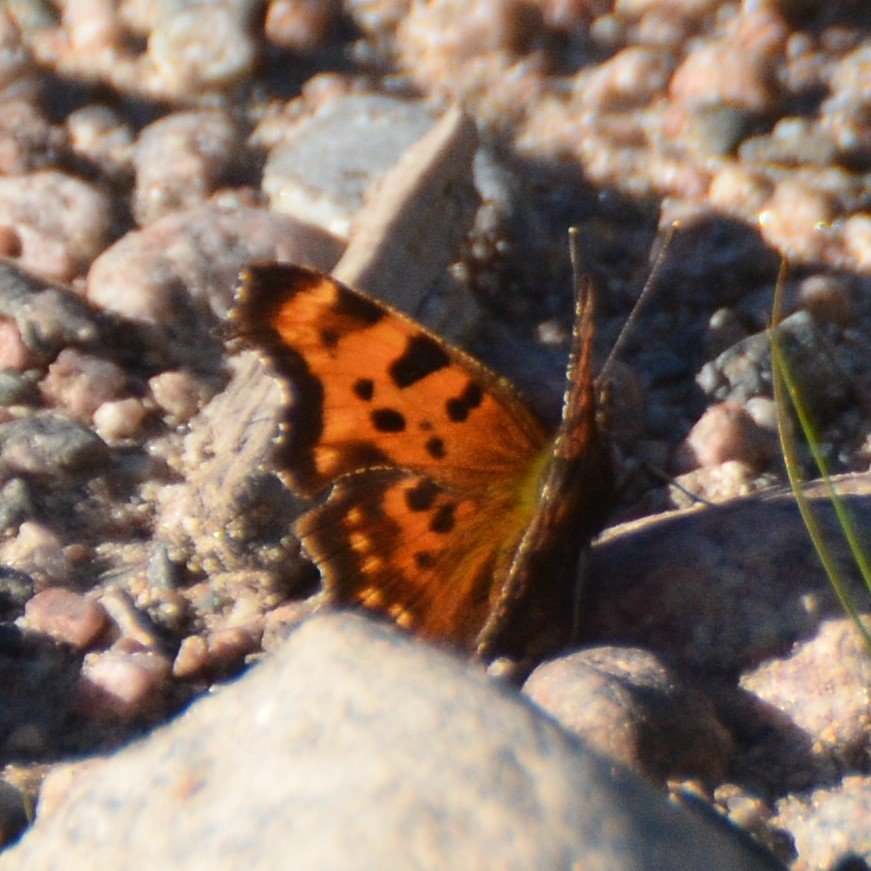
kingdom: Animalia
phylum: Arthropoda
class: Insecta
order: Lepidoptera
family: Nymphalidae
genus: Polygonia
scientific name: Polygonia faunus
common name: Green Comma
